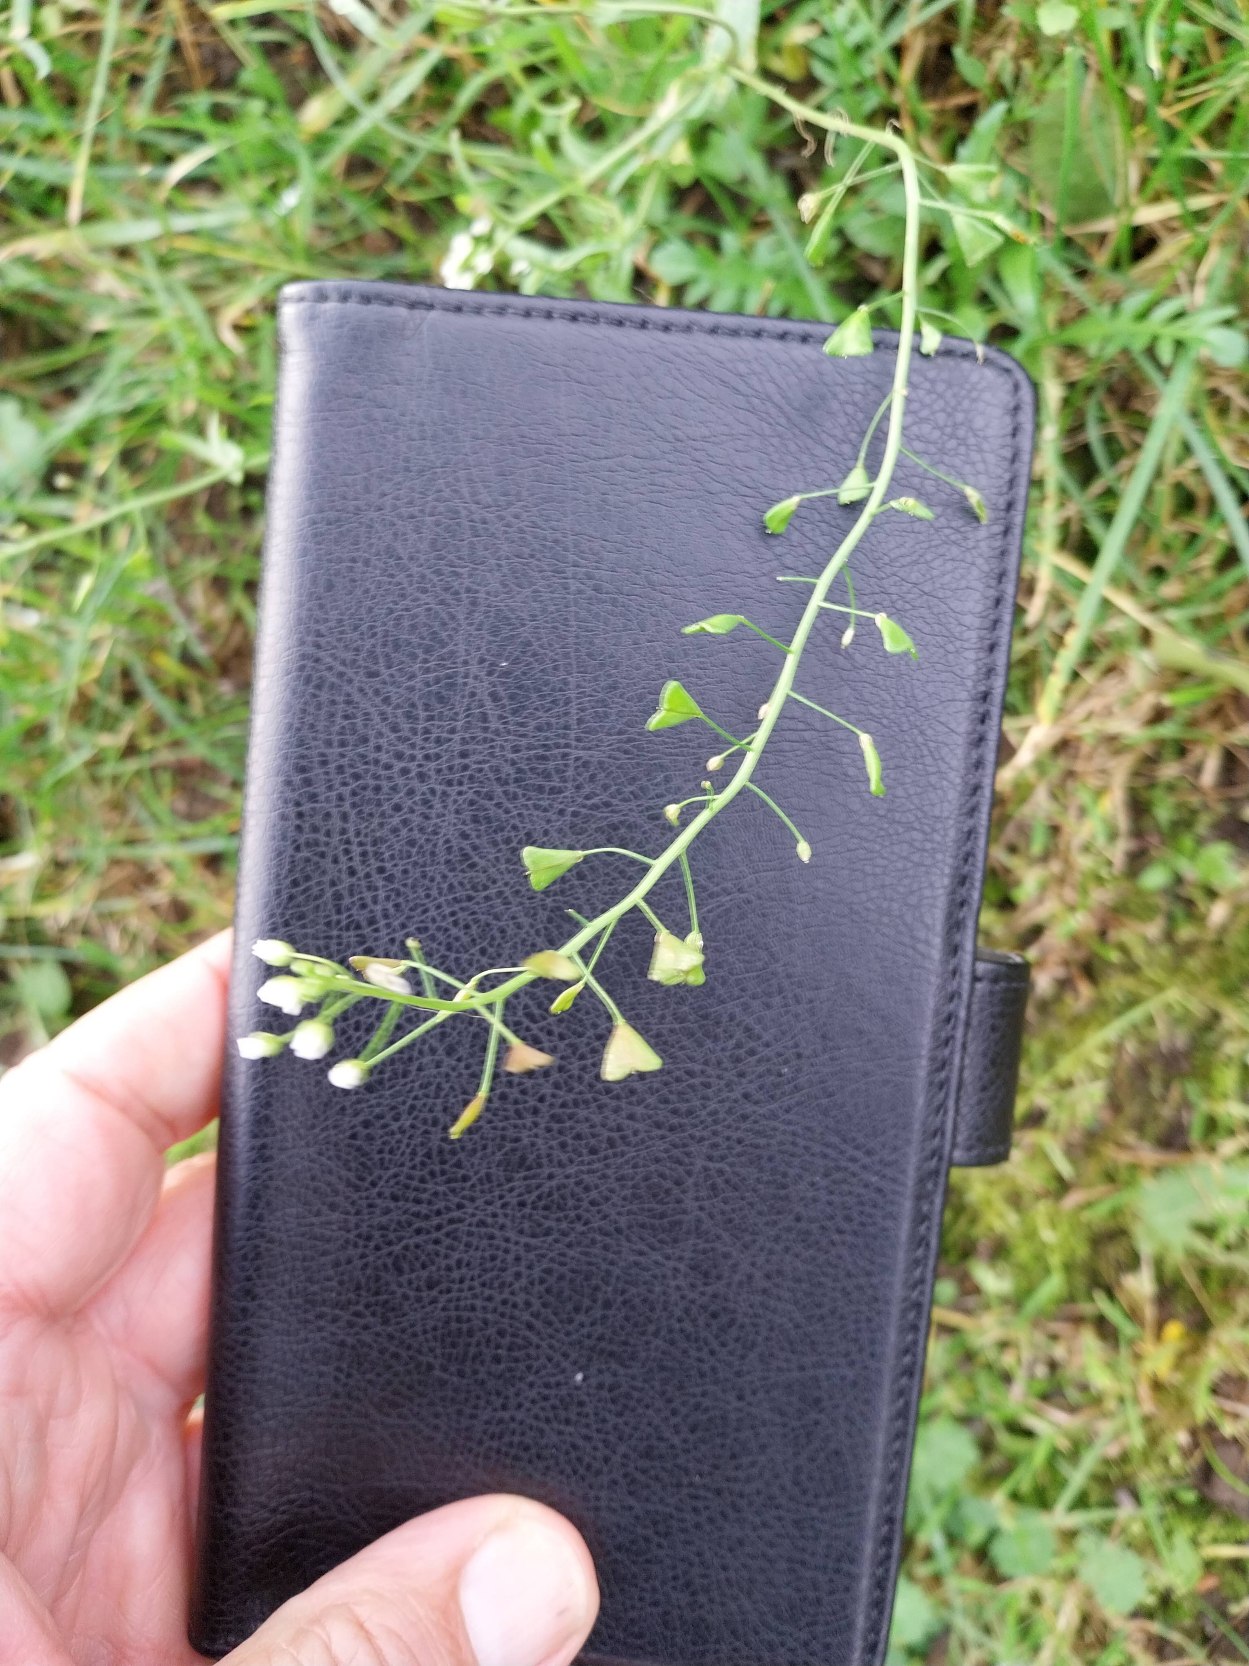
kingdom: Plantae
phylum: Tracheophyta
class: Magnoliopsida
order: Brassicales
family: Brassicaceae
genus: Capsella
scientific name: Capsella bursa-pastoris
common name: Hyrdetaske
